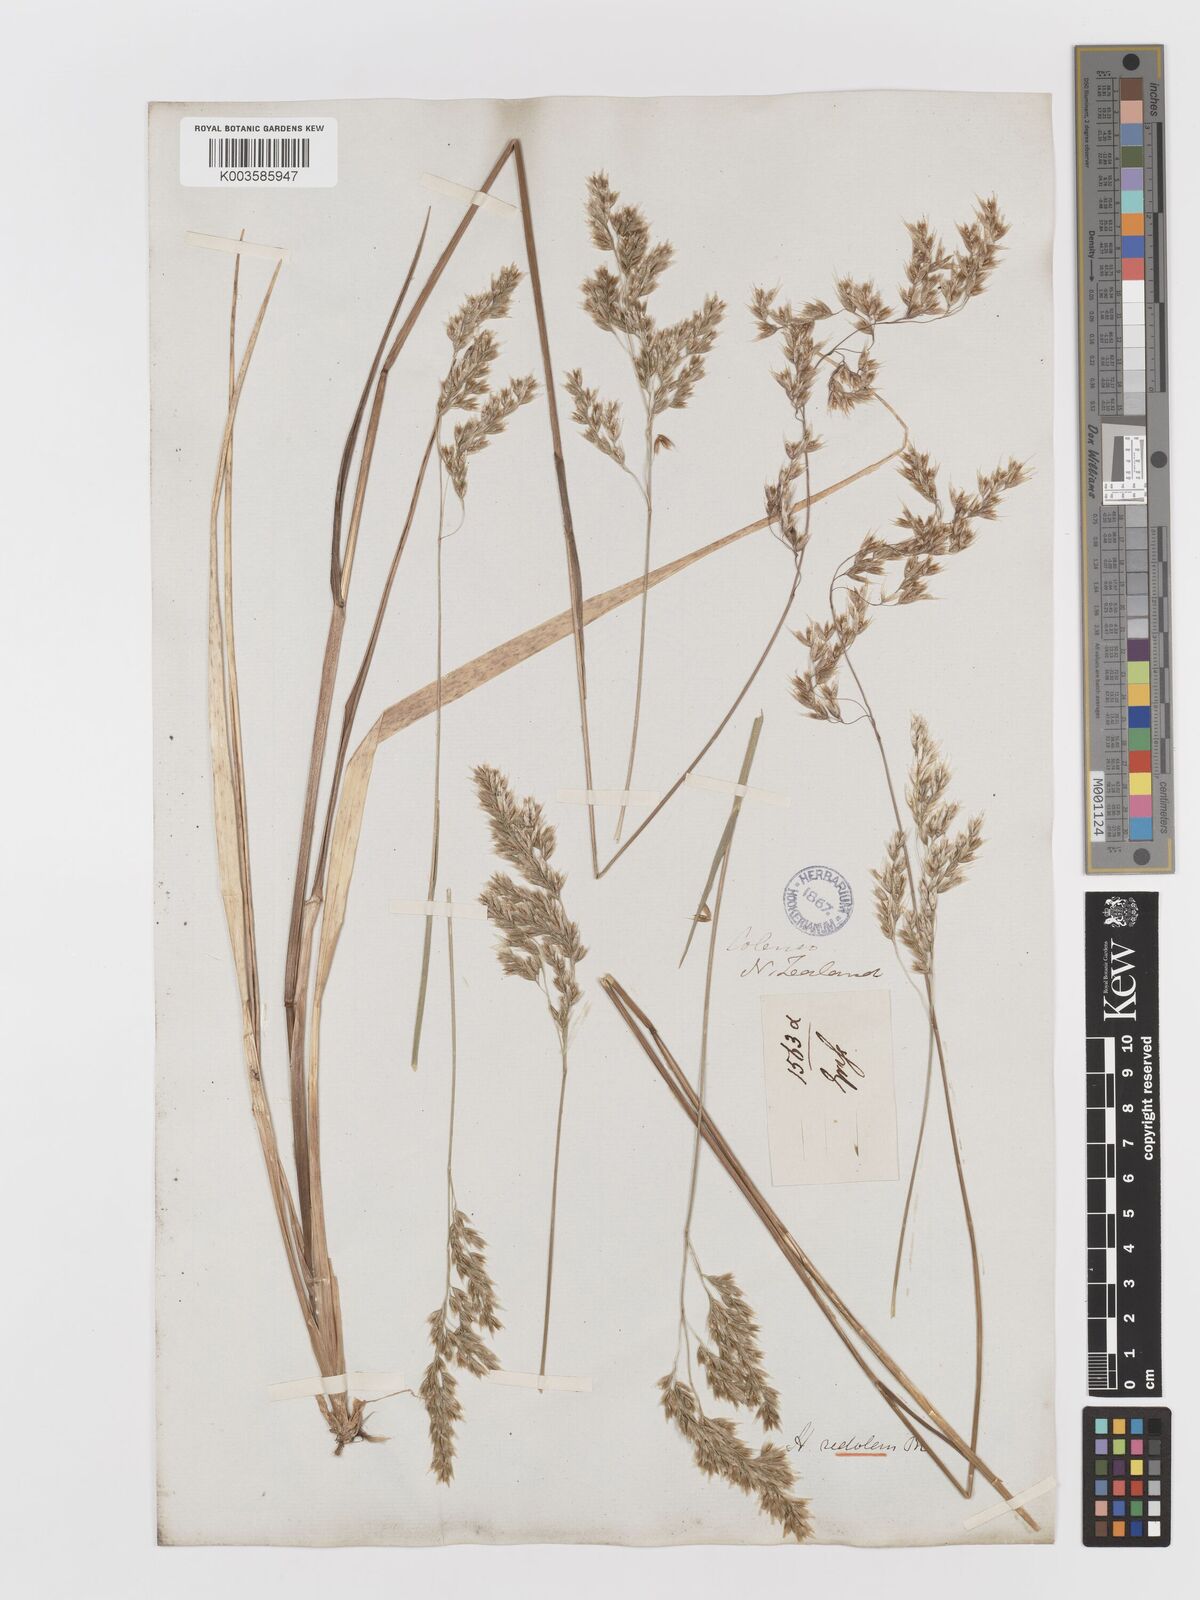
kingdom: Plantae
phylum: Tracheophyta
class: Liliopsida
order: Poales
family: Poaceae
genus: Anthoxanthum
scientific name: Anthoxanthum redolens
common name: Sweet holy grass
